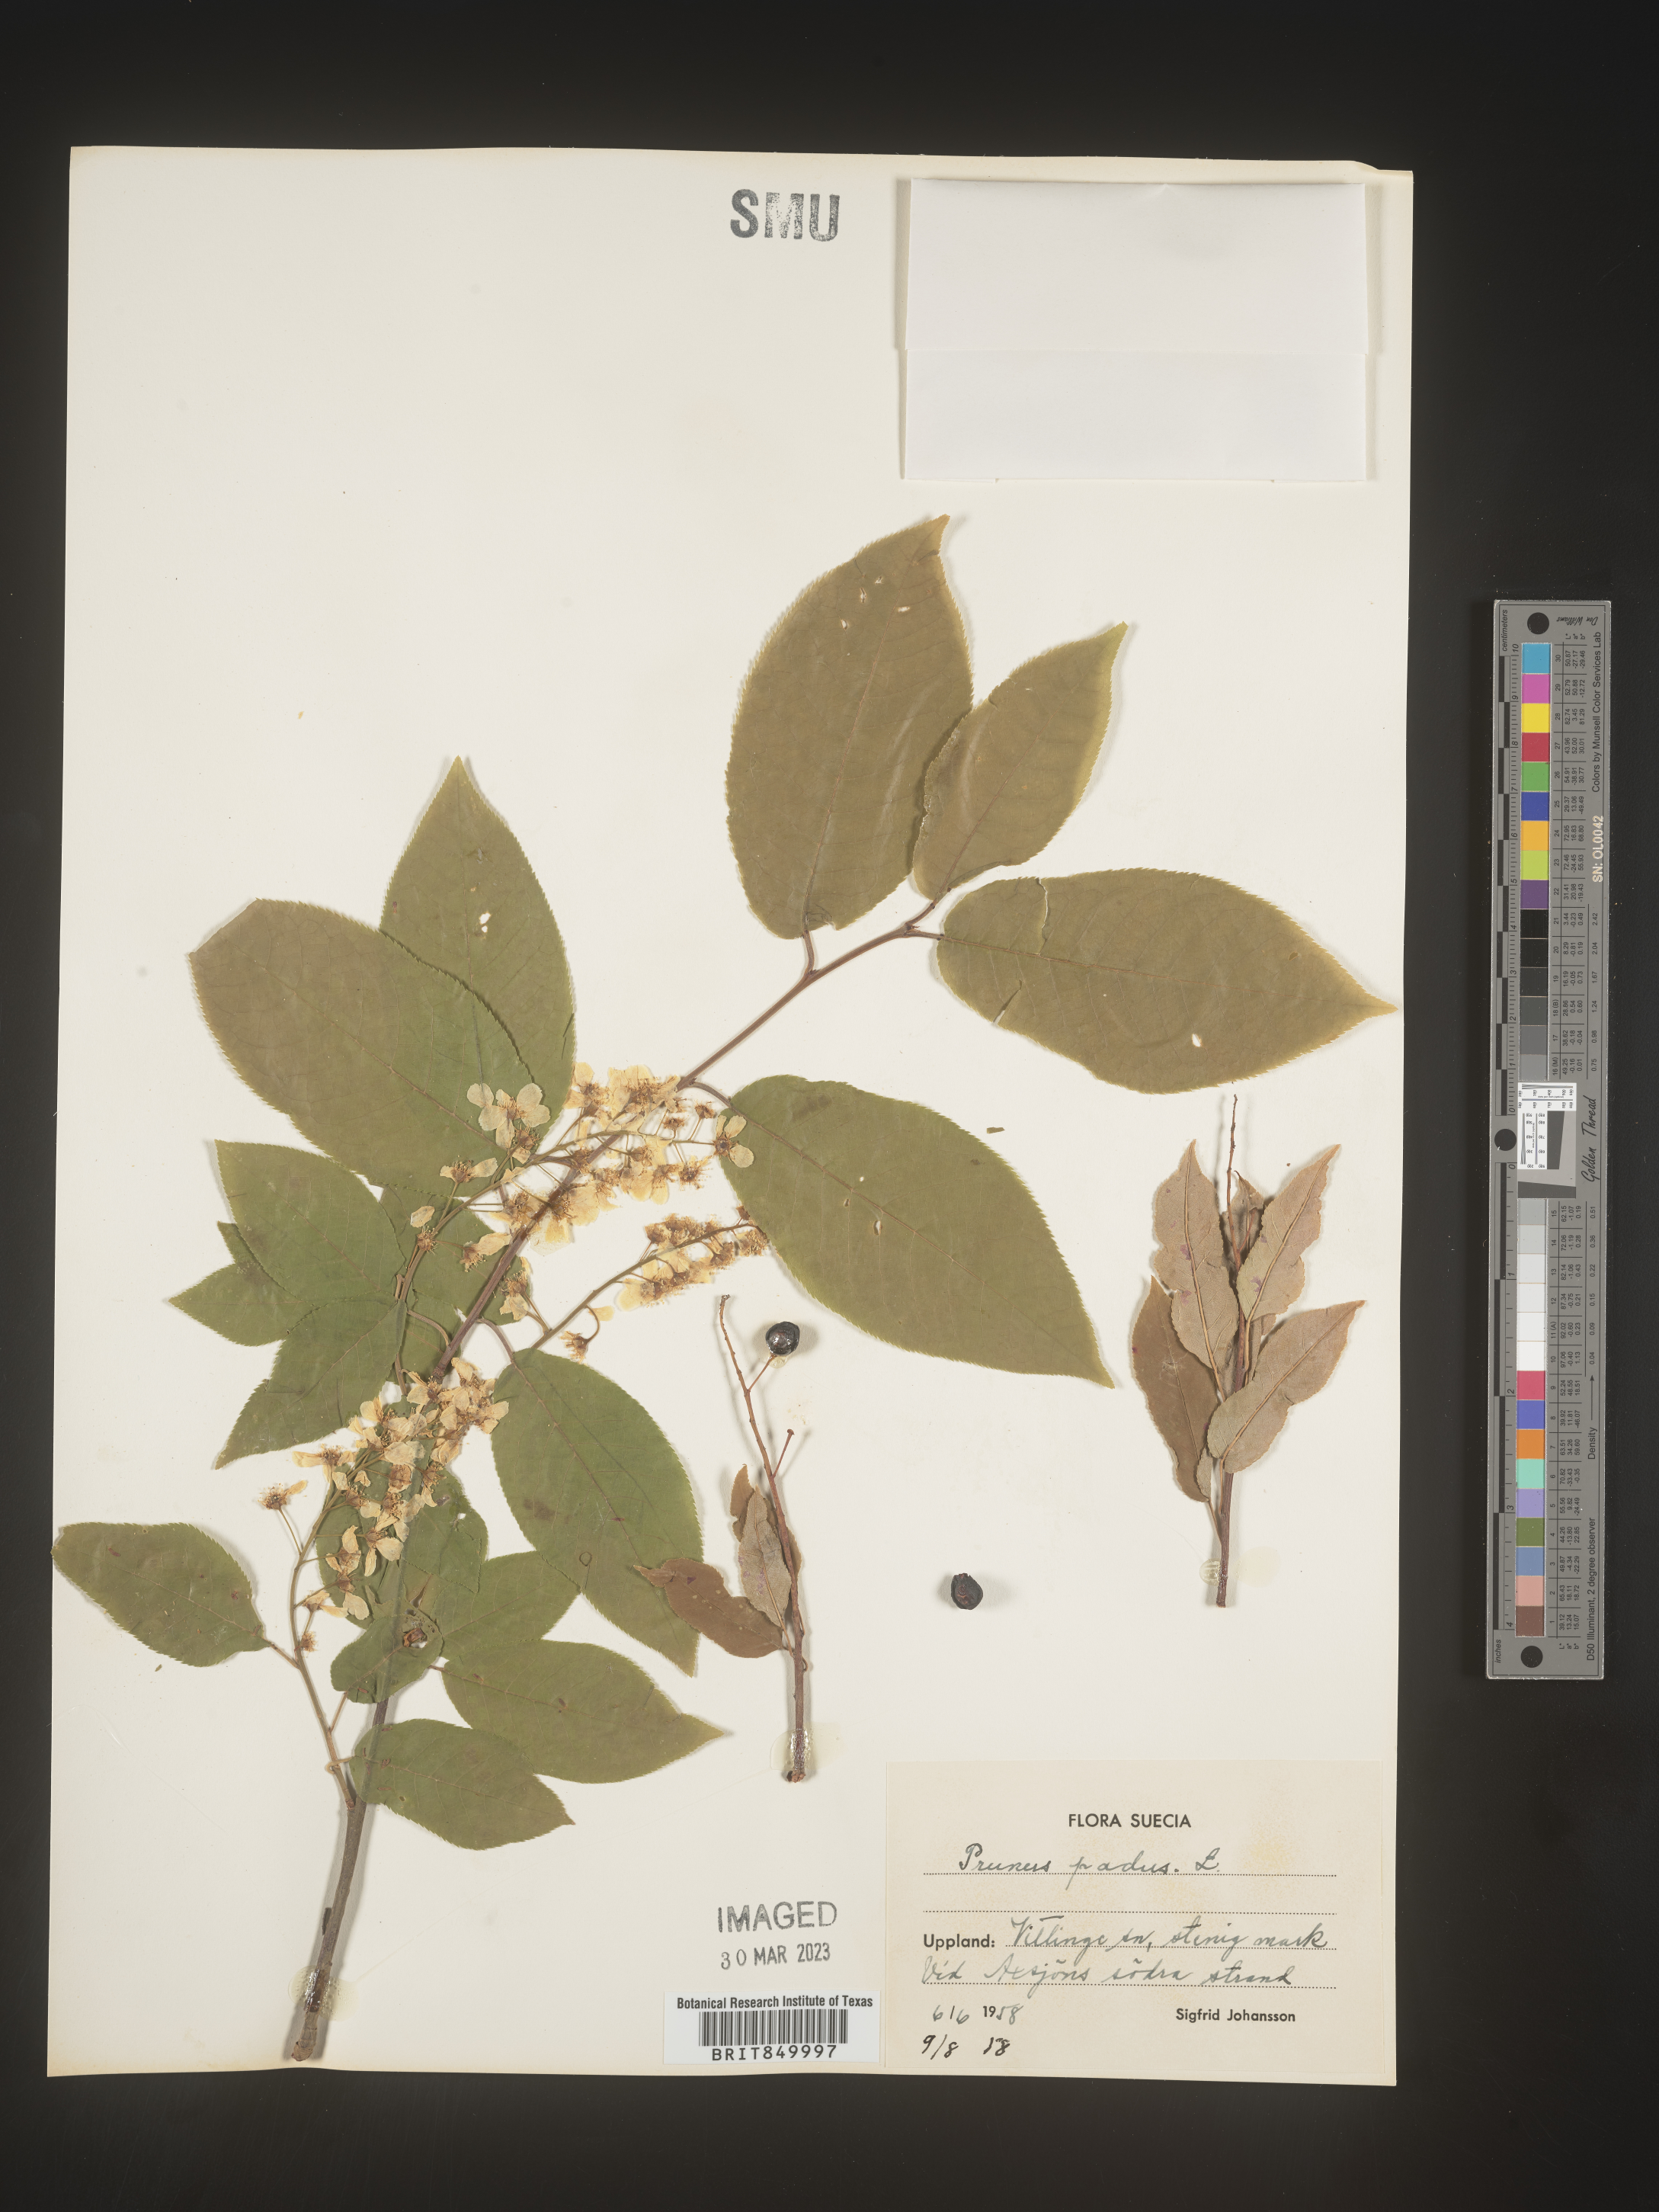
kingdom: Plantae
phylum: Tracheophyta
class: Magnoliopsida
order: Rosales
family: Rosaceae
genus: Prunus
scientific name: Prunus
